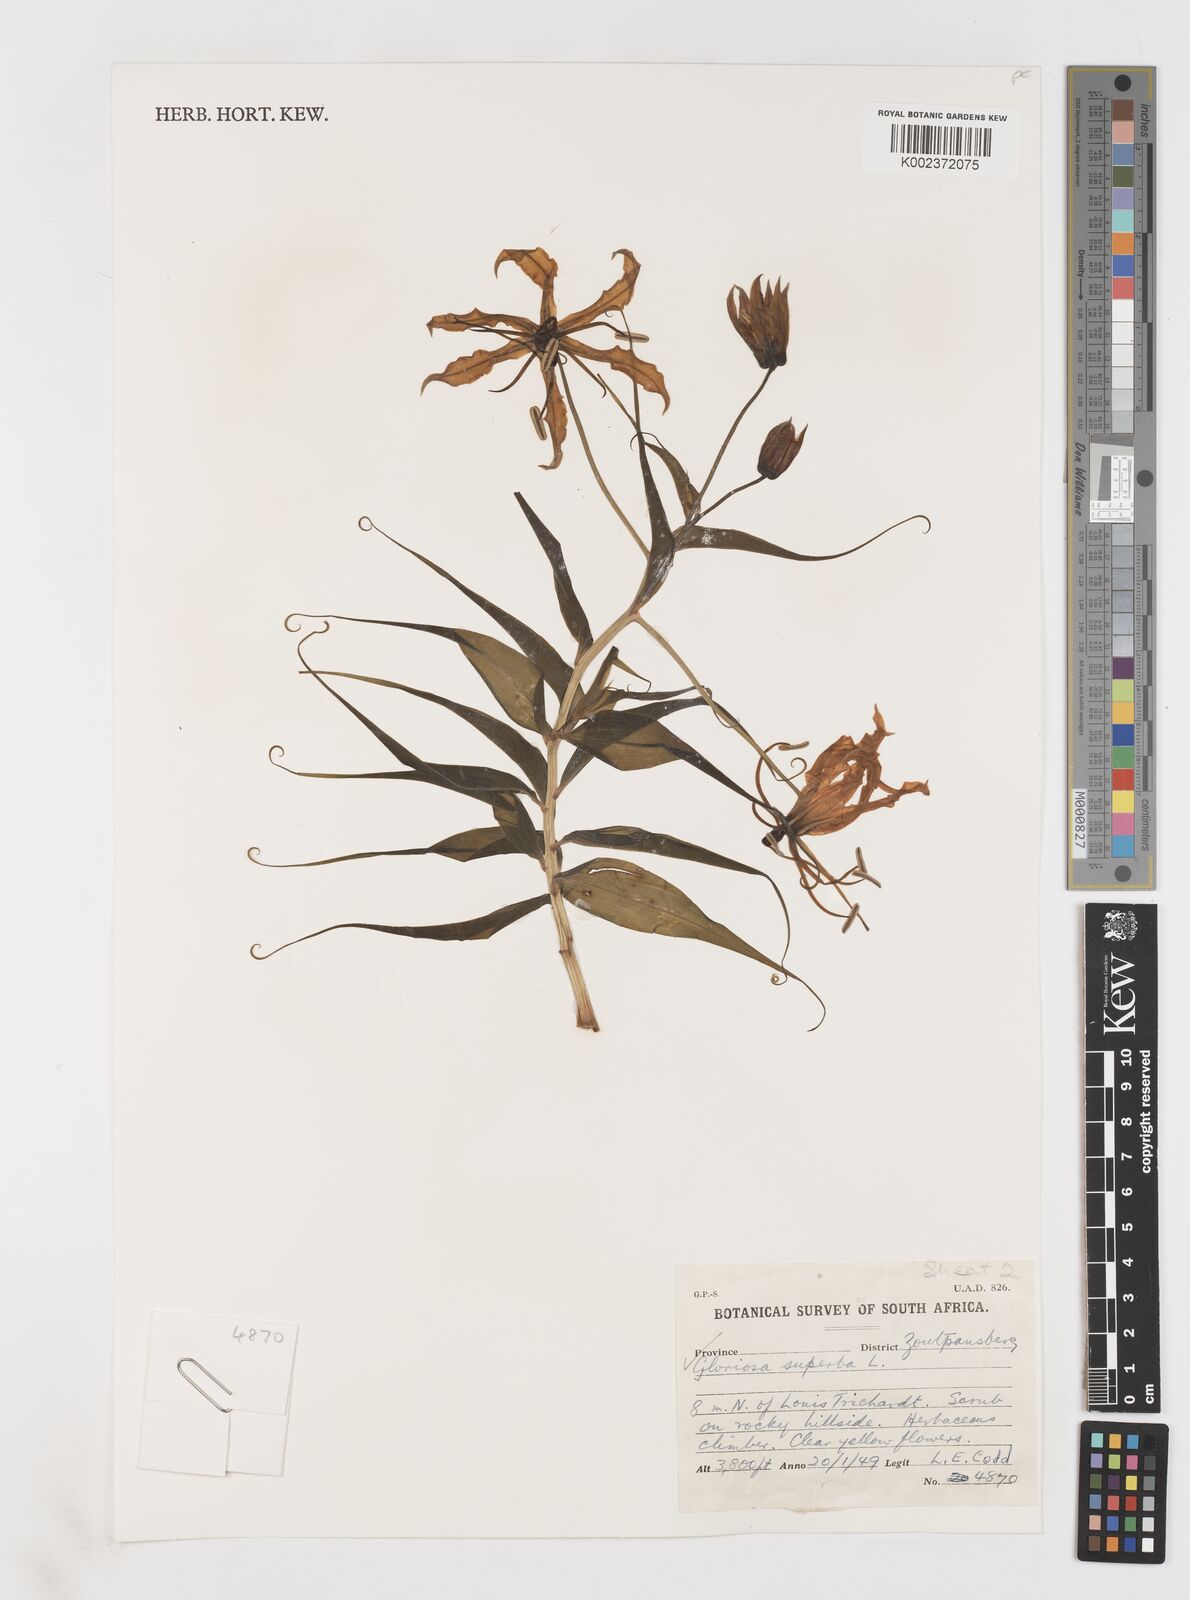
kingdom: Plantae
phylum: Tracheophyta
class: Liliopsida
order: Liliales
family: Colchicaceae
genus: Gloriosa
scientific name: Gloriosa simplex
